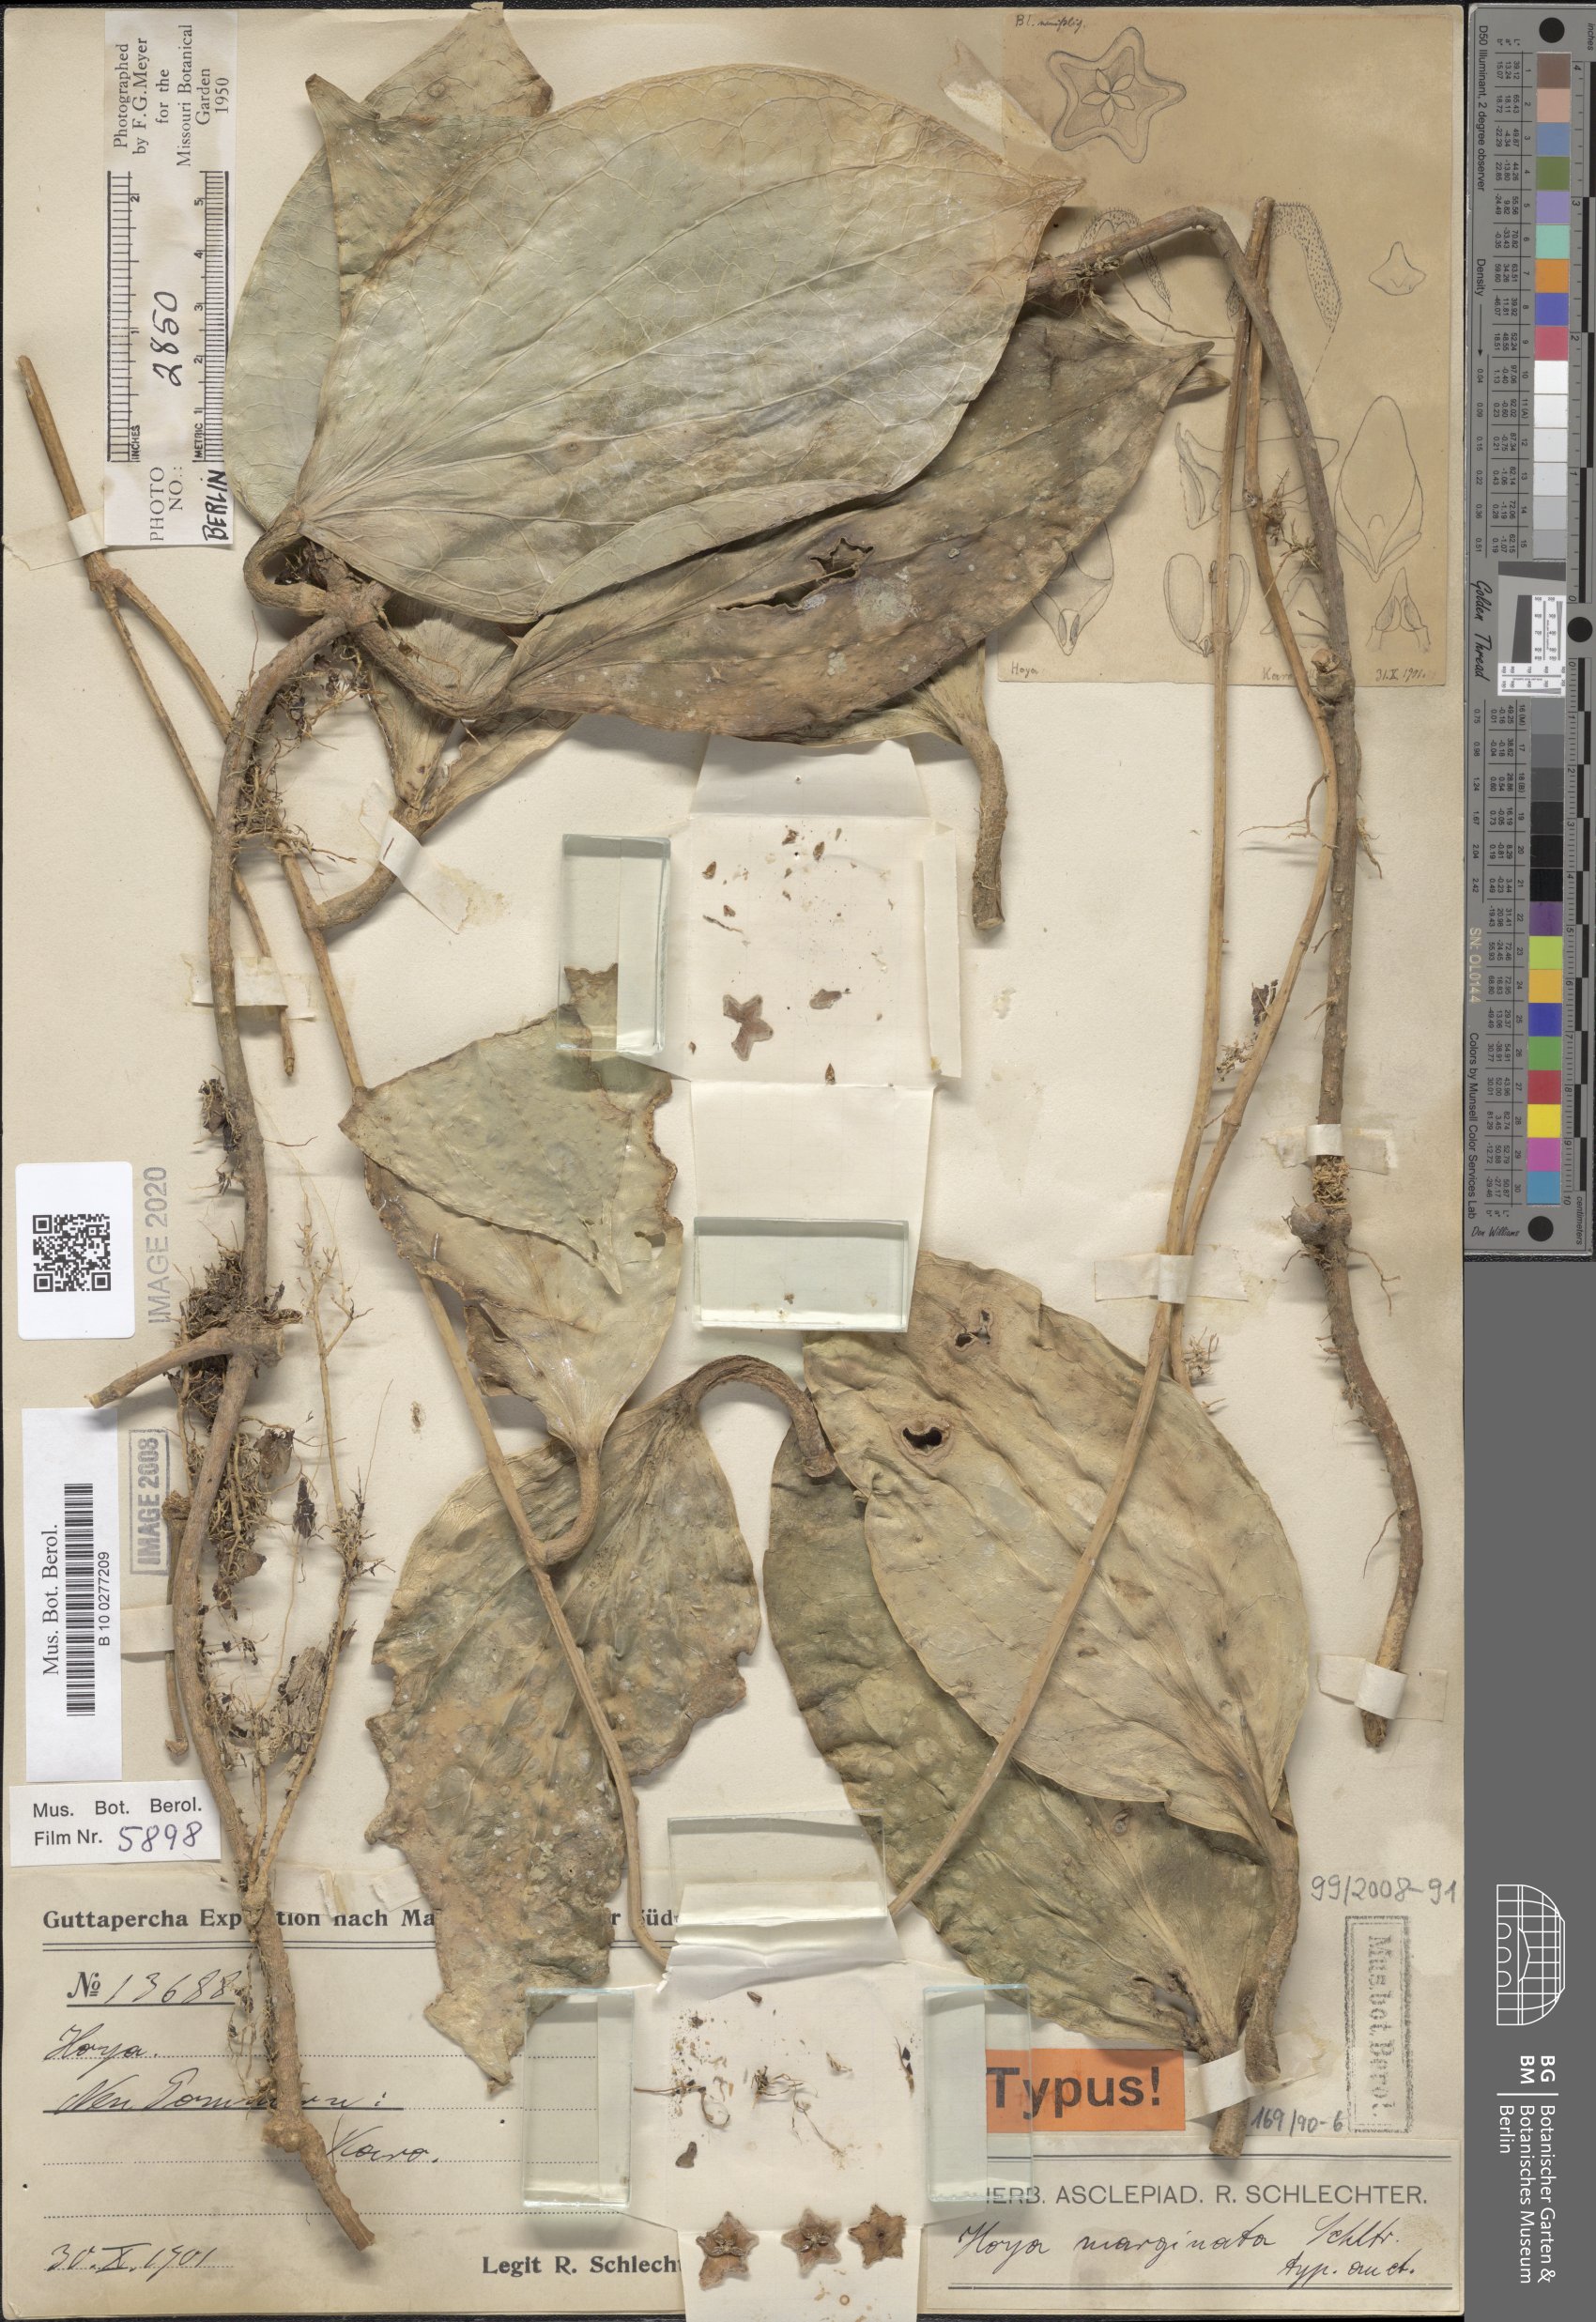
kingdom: Plantae
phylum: Tracheophyta
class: Magnoliopsida
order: Gentianales
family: Apocynaceae
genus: Hoya
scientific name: Hoya marginata
